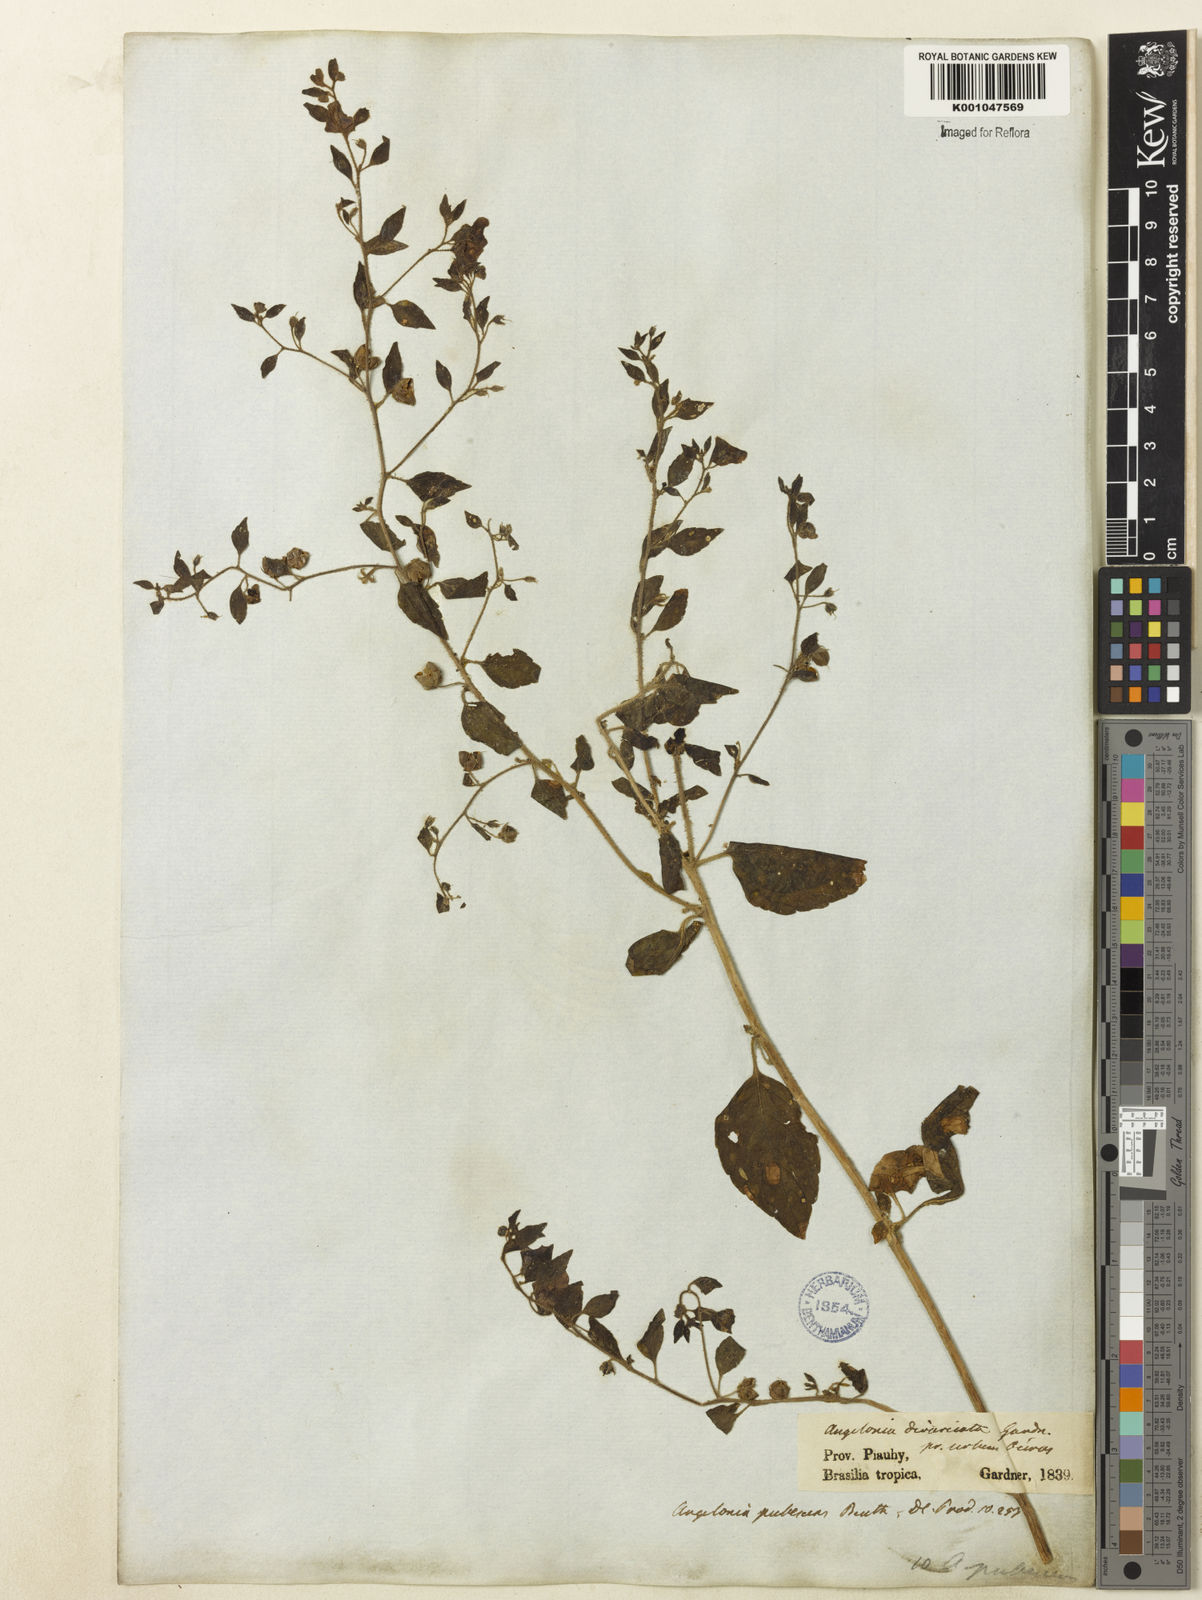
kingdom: Plantae
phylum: Tracheophyta
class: Magnoliopsida
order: Lamiales
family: Plantaginaceae
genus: Angelonia
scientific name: Angelonia pubescens
